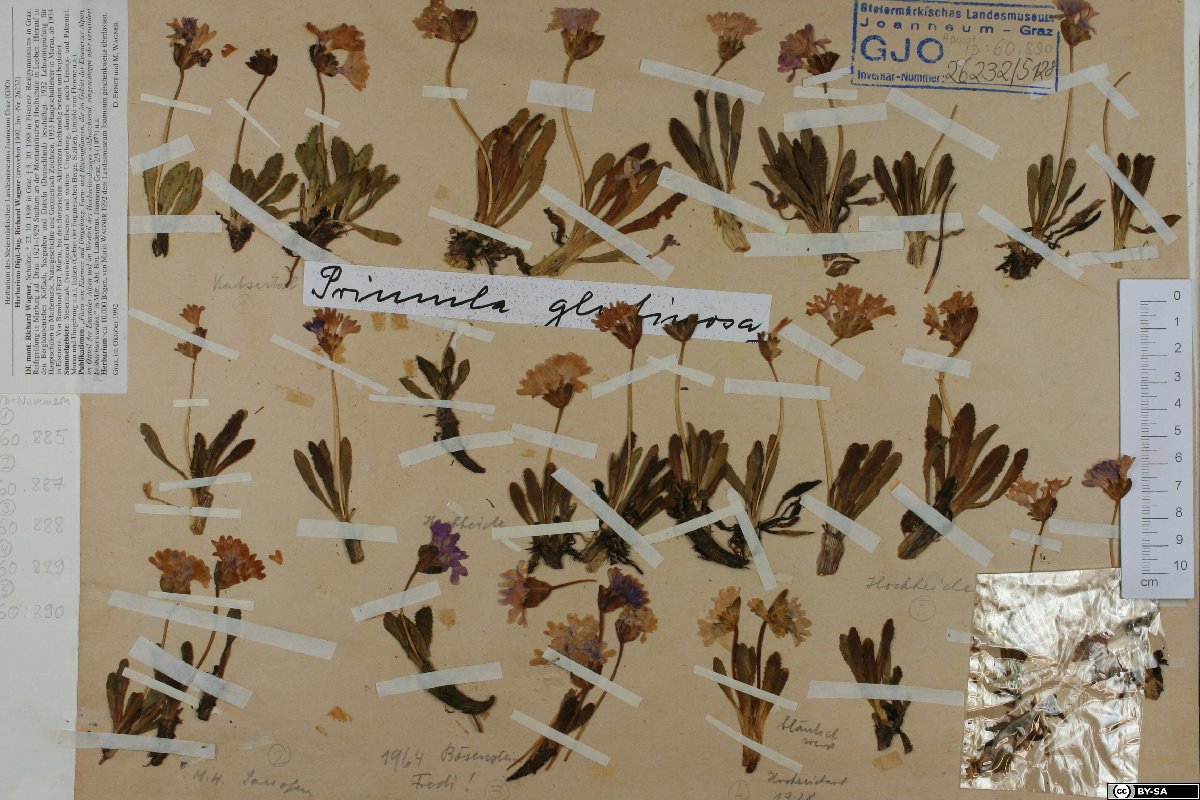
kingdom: Plantae
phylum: Tracheophyta
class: Magnoliopsida
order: Ericales
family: Primulaceae
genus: Primula
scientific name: Primula glutinosa
